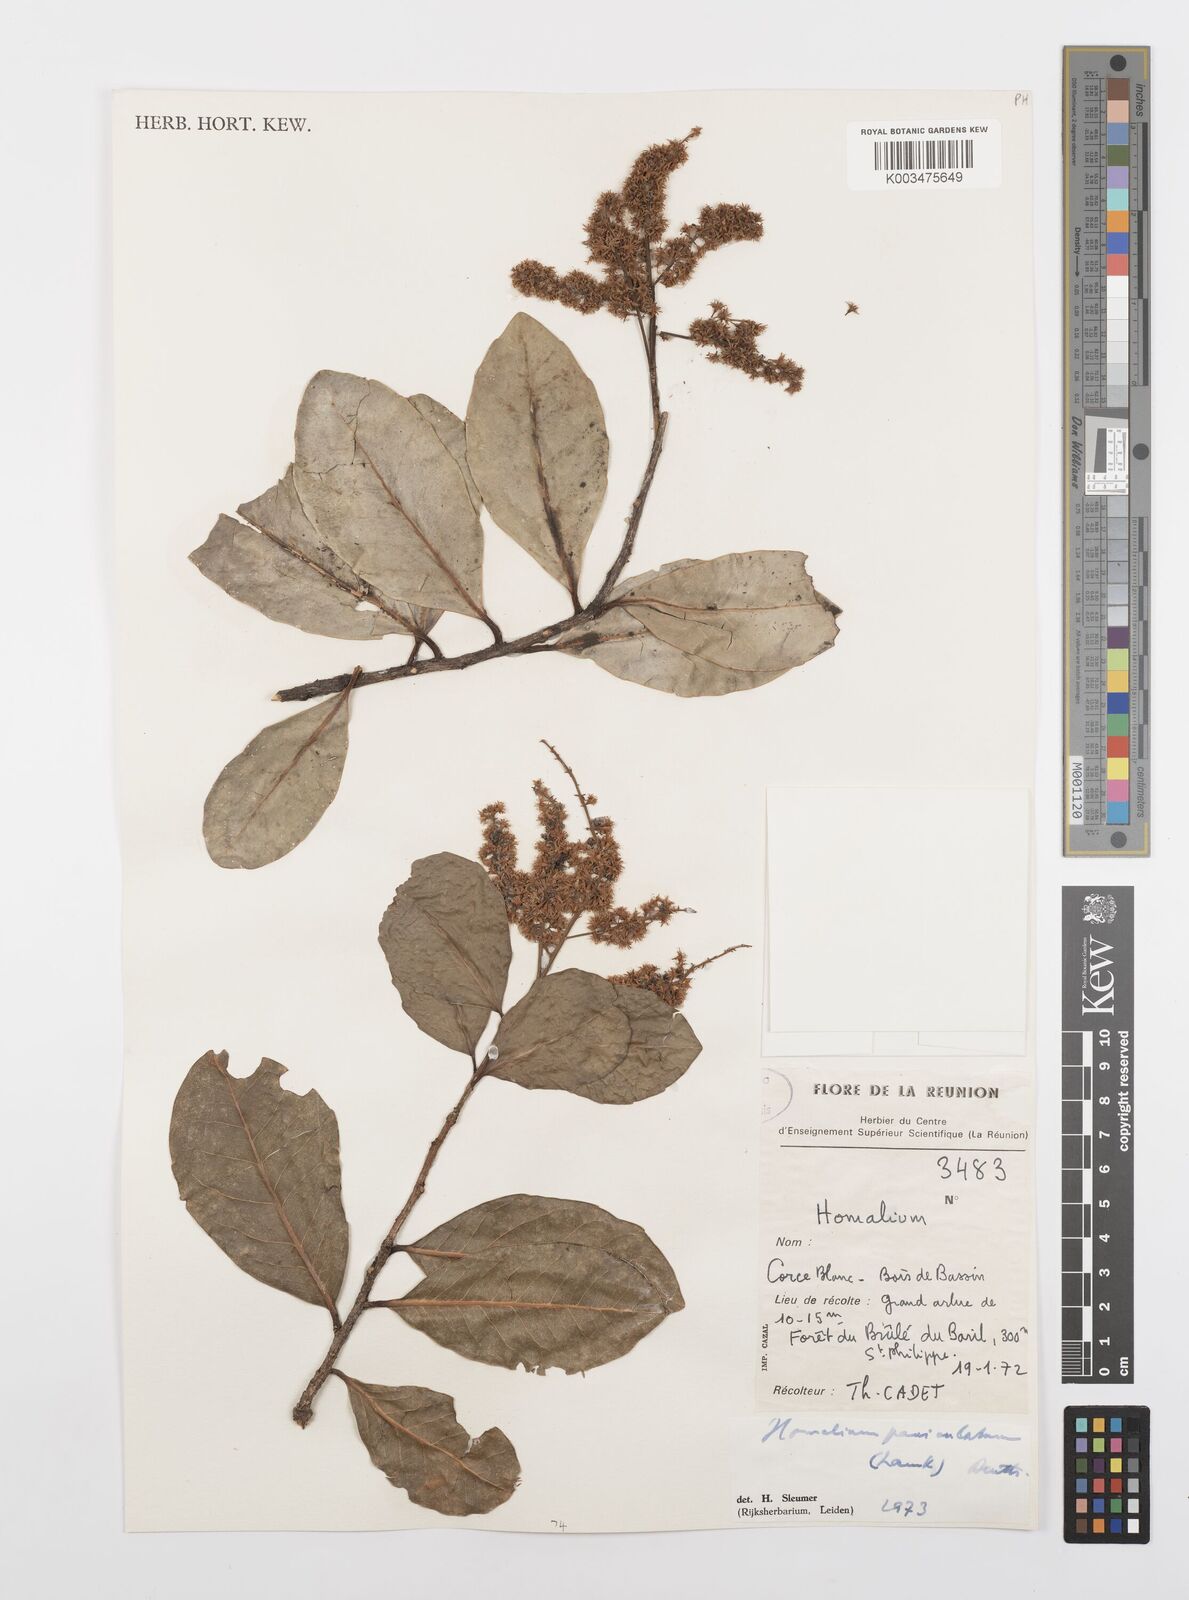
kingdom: Plantae
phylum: Tracheophyta
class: Magnoliopsida
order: Malpighiales
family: Salicaceae
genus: Homalium
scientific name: Homalium erianthum
